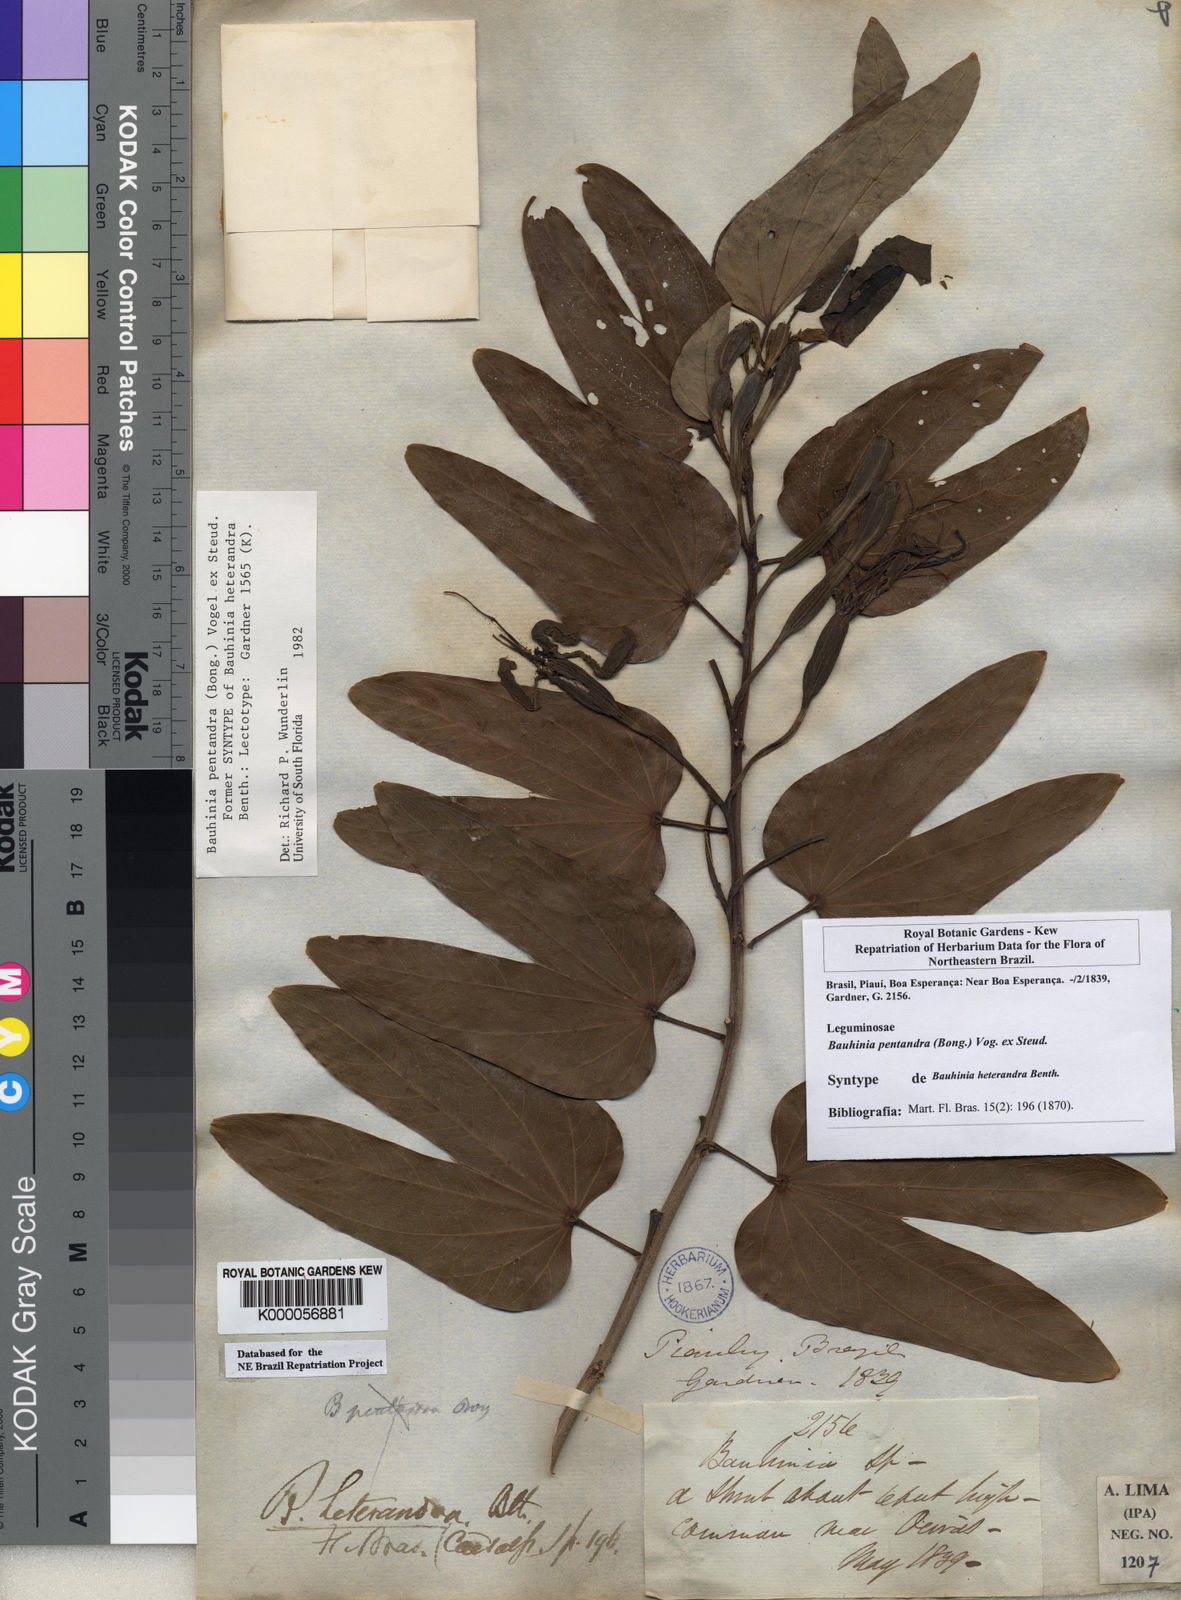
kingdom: Plantae
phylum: Tracheophyta
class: Magnoliopsida
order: Fabales
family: Fabaceae
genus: Bauhinia
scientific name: Bauhinia
